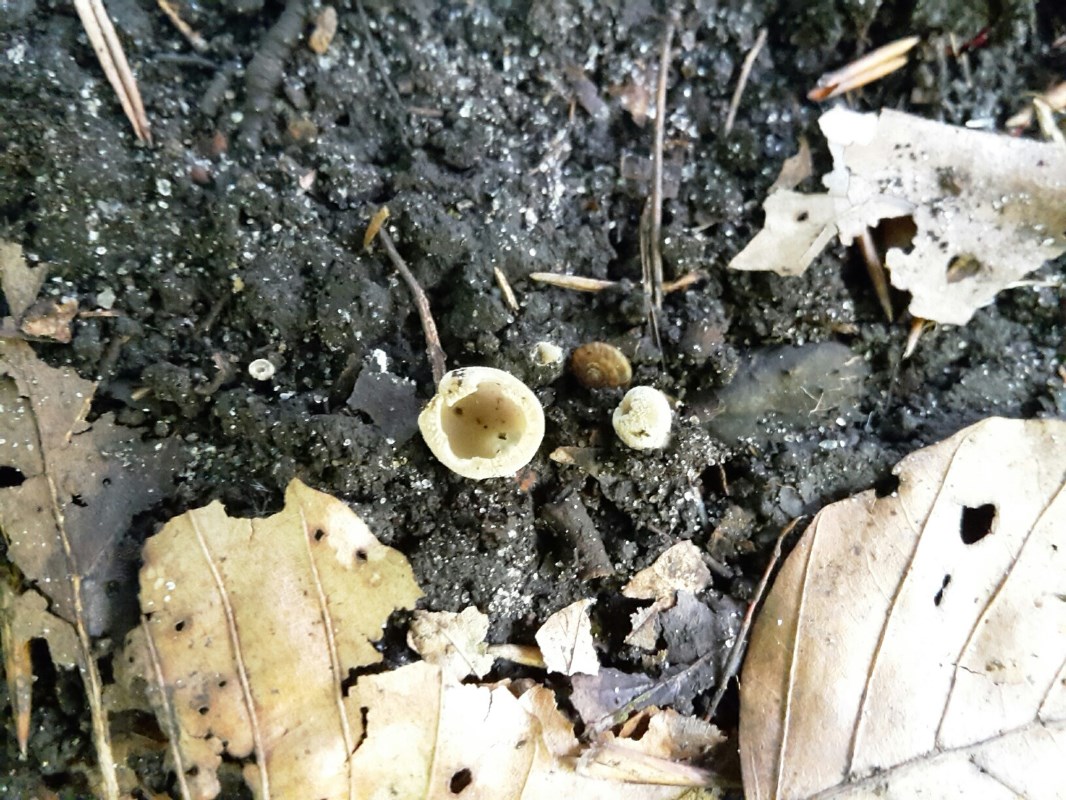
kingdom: Fungi
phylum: Ascomycota
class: Pezizomycetes
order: Pezizales
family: Pyronemataceae
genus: Tarzetta
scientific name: Tarzetta cupularis
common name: gulbrun pokalbæger
